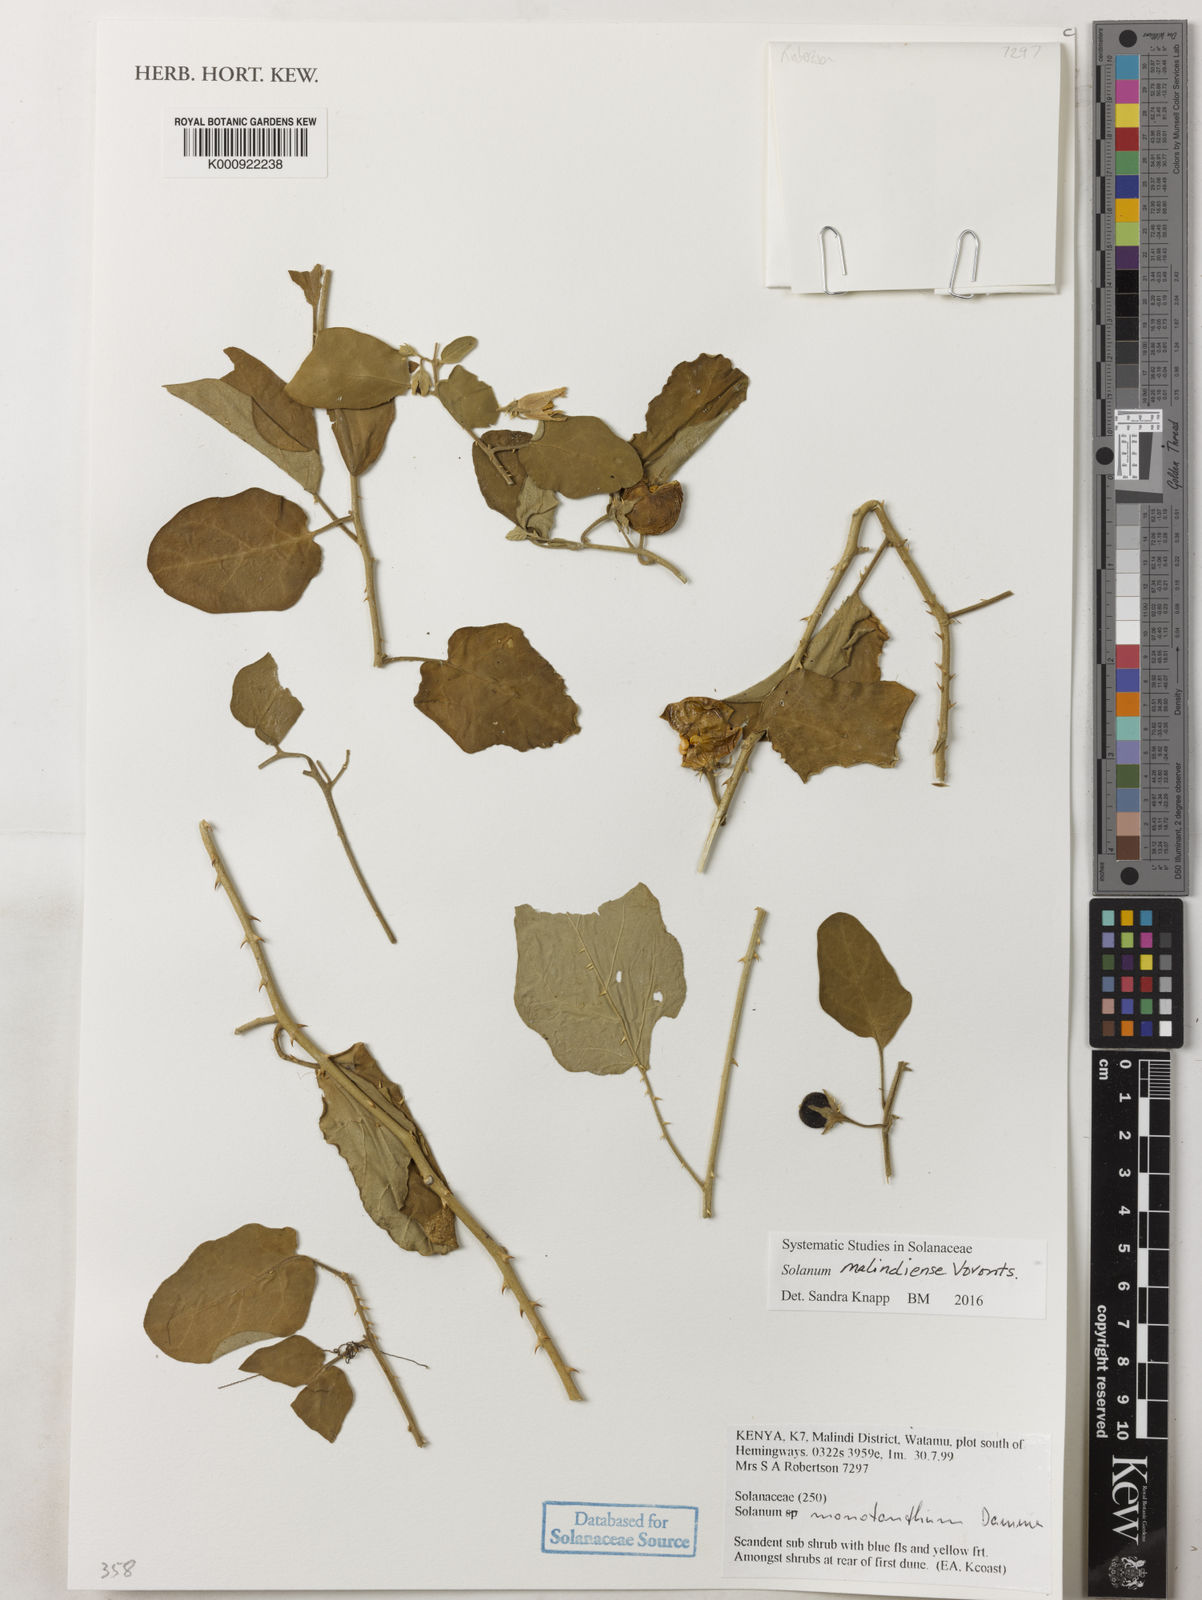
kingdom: Plantae
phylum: Tracheophyta
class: Magnoliopsida
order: Solanales
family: Solanaceae
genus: Solanum
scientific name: Solanum malindiense
